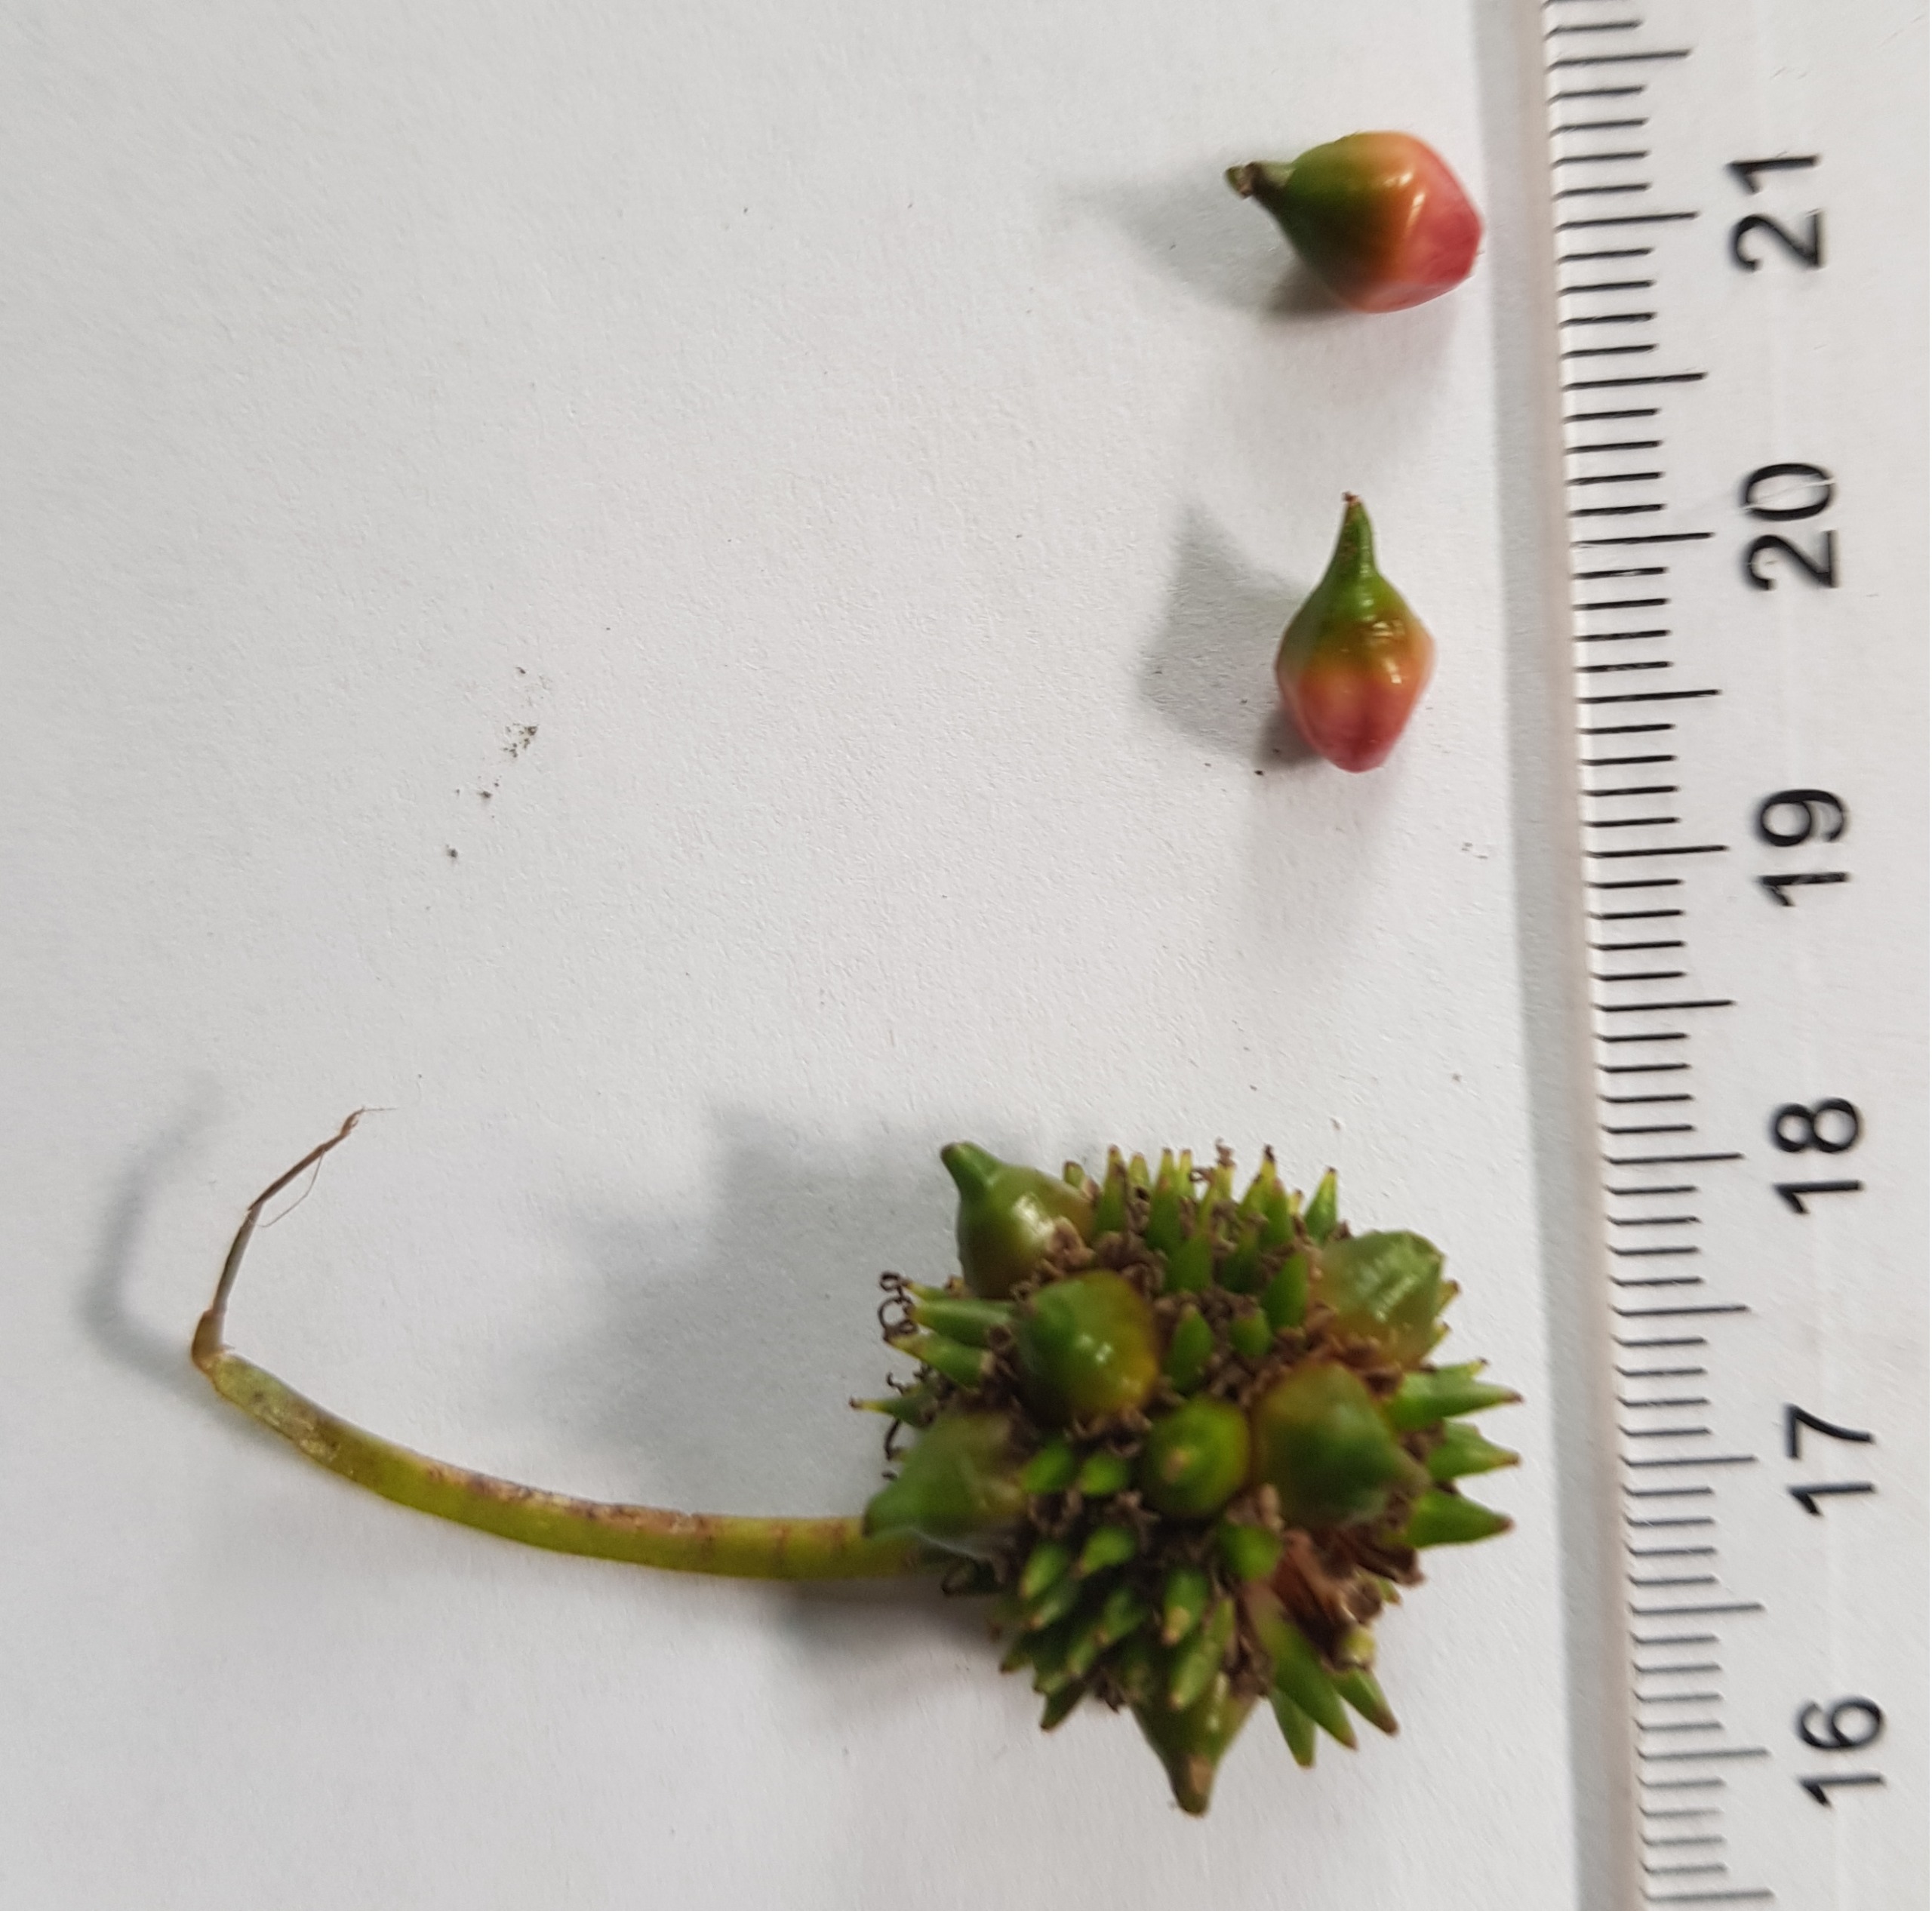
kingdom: Plantae
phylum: Tracheophyta
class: Liliopsida
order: Poales
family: Typhaceae
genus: Sparganium
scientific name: Sparganium erectum
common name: Sodfarvet pindsvineknop
